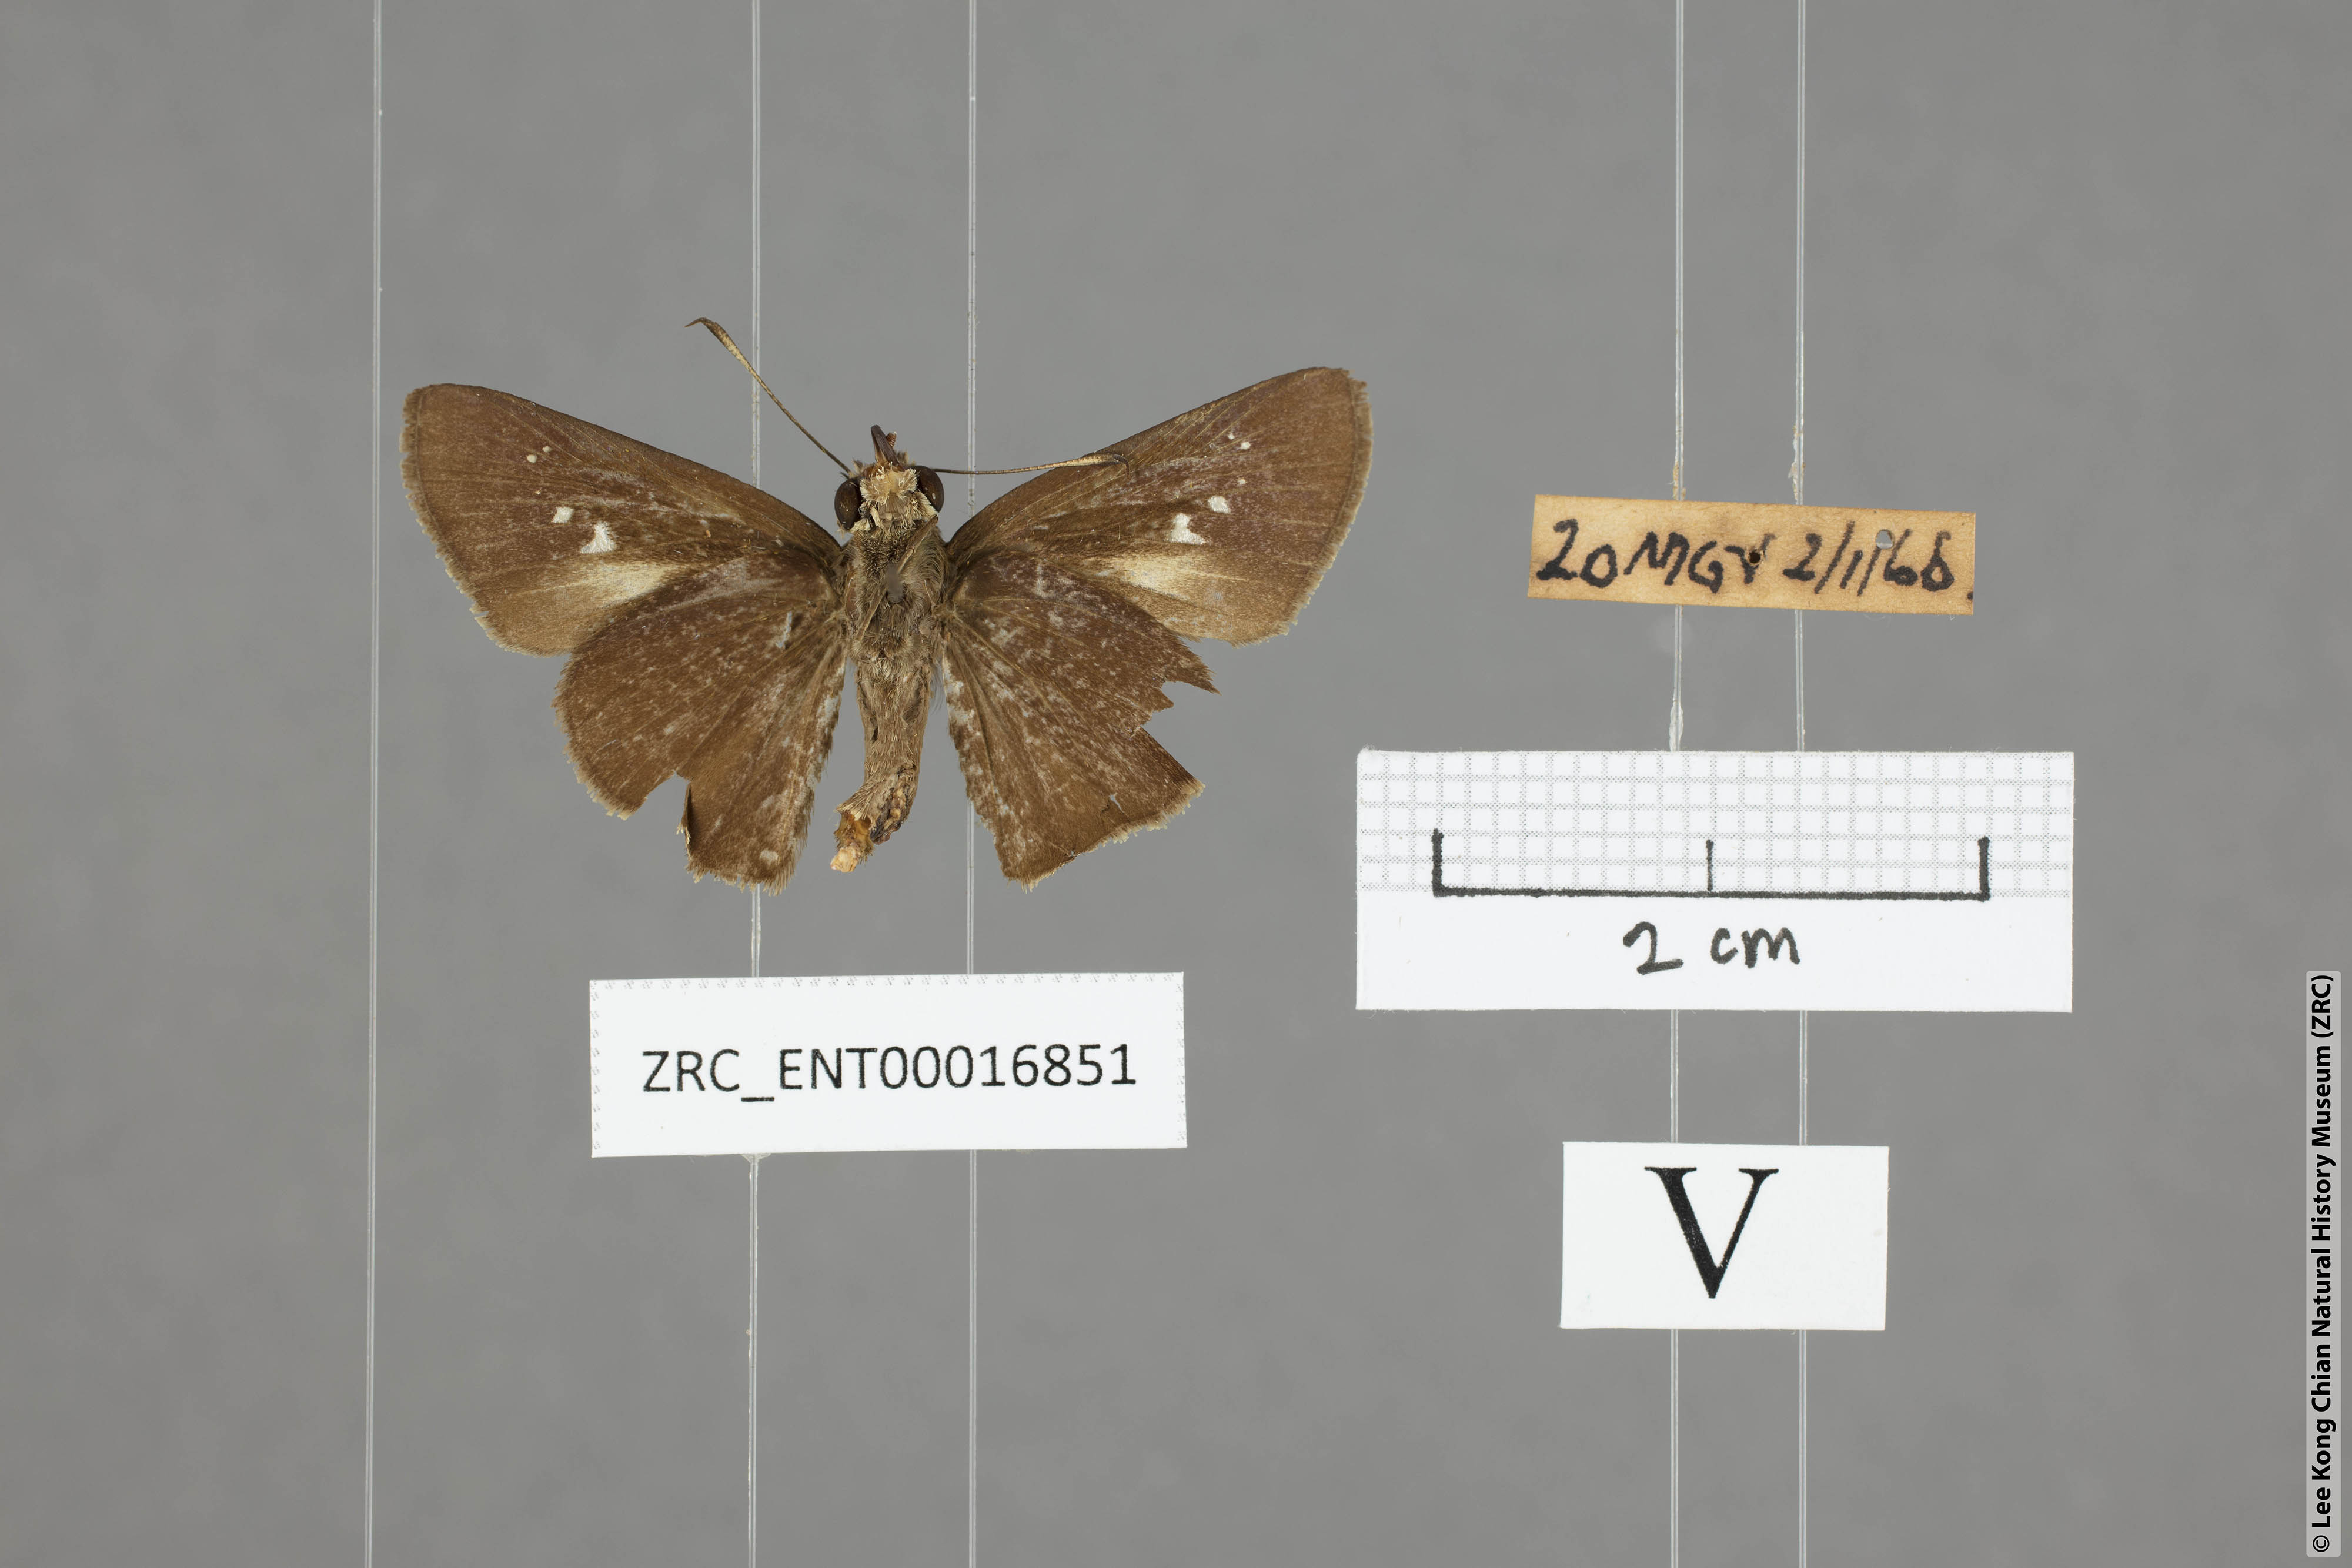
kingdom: Animalia
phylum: Arthropoda
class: Insecta
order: Lepidoptera
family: Hesperiidae
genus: Caltoris
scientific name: Caltoris plebeia
